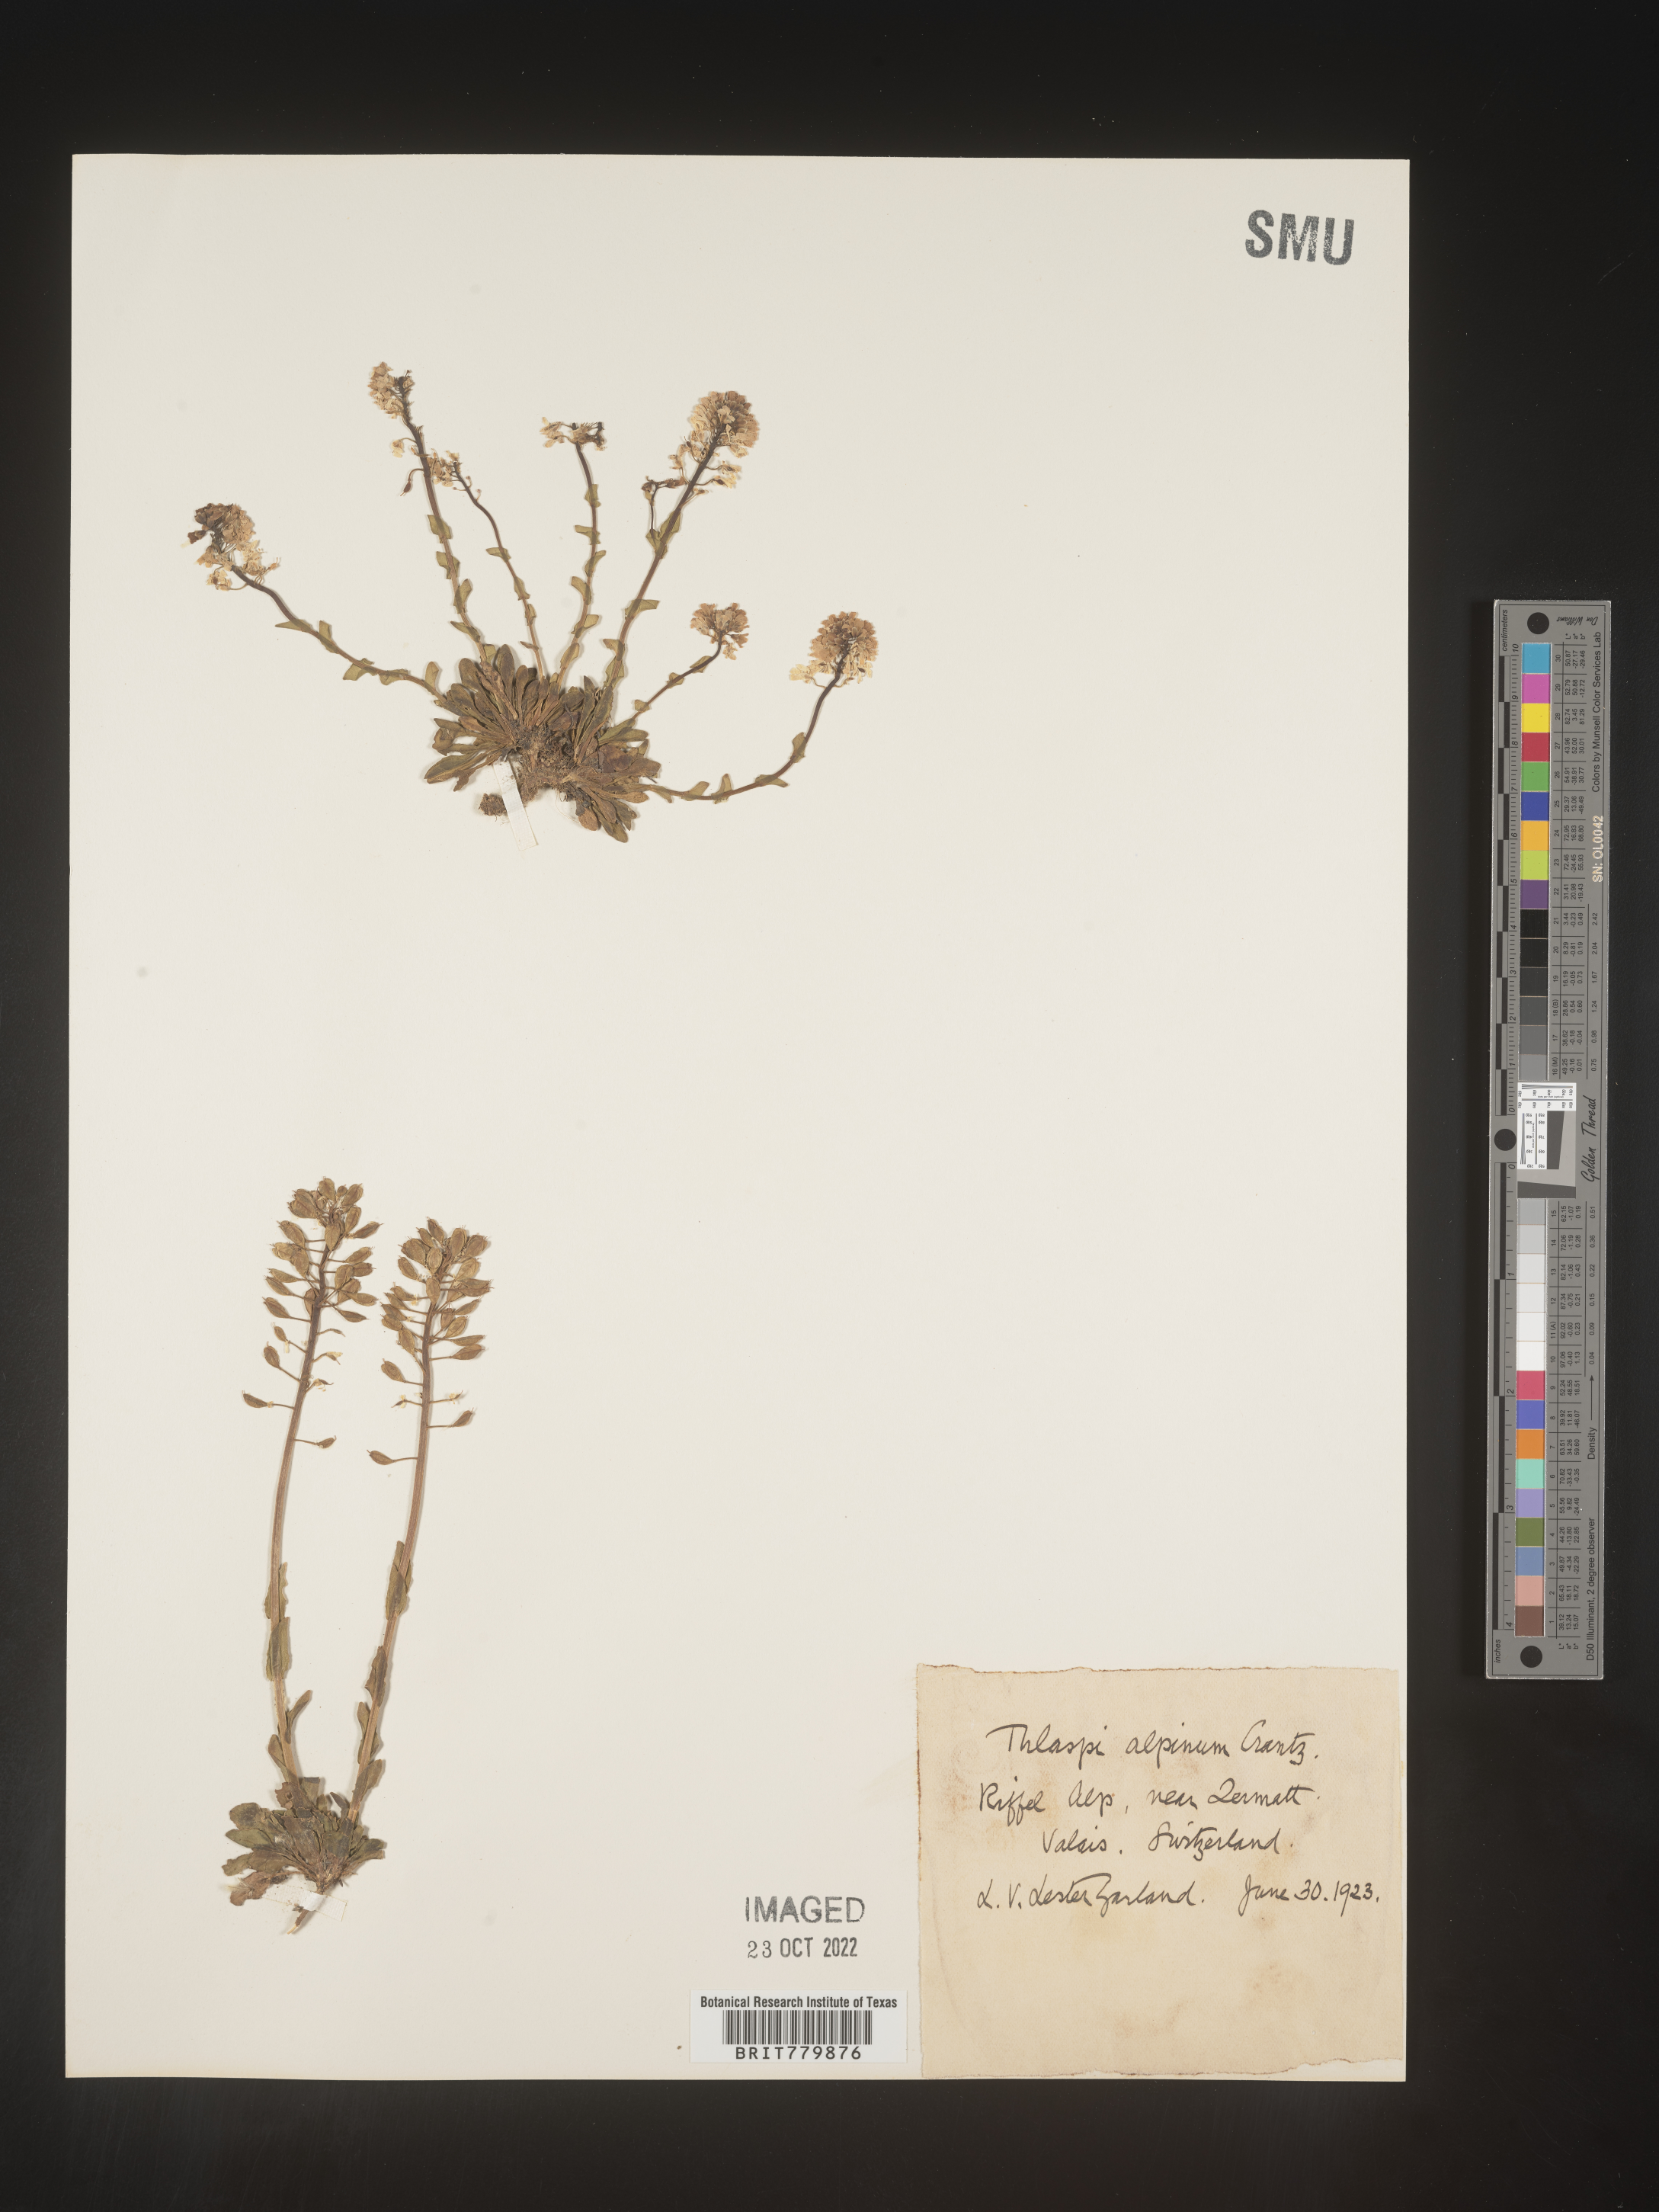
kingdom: Plantae
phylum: Tracheophyta
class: Magnoliopsida
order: Brassicales
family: Brassicaceae
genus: Thlaspi
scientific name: Thlaspi
